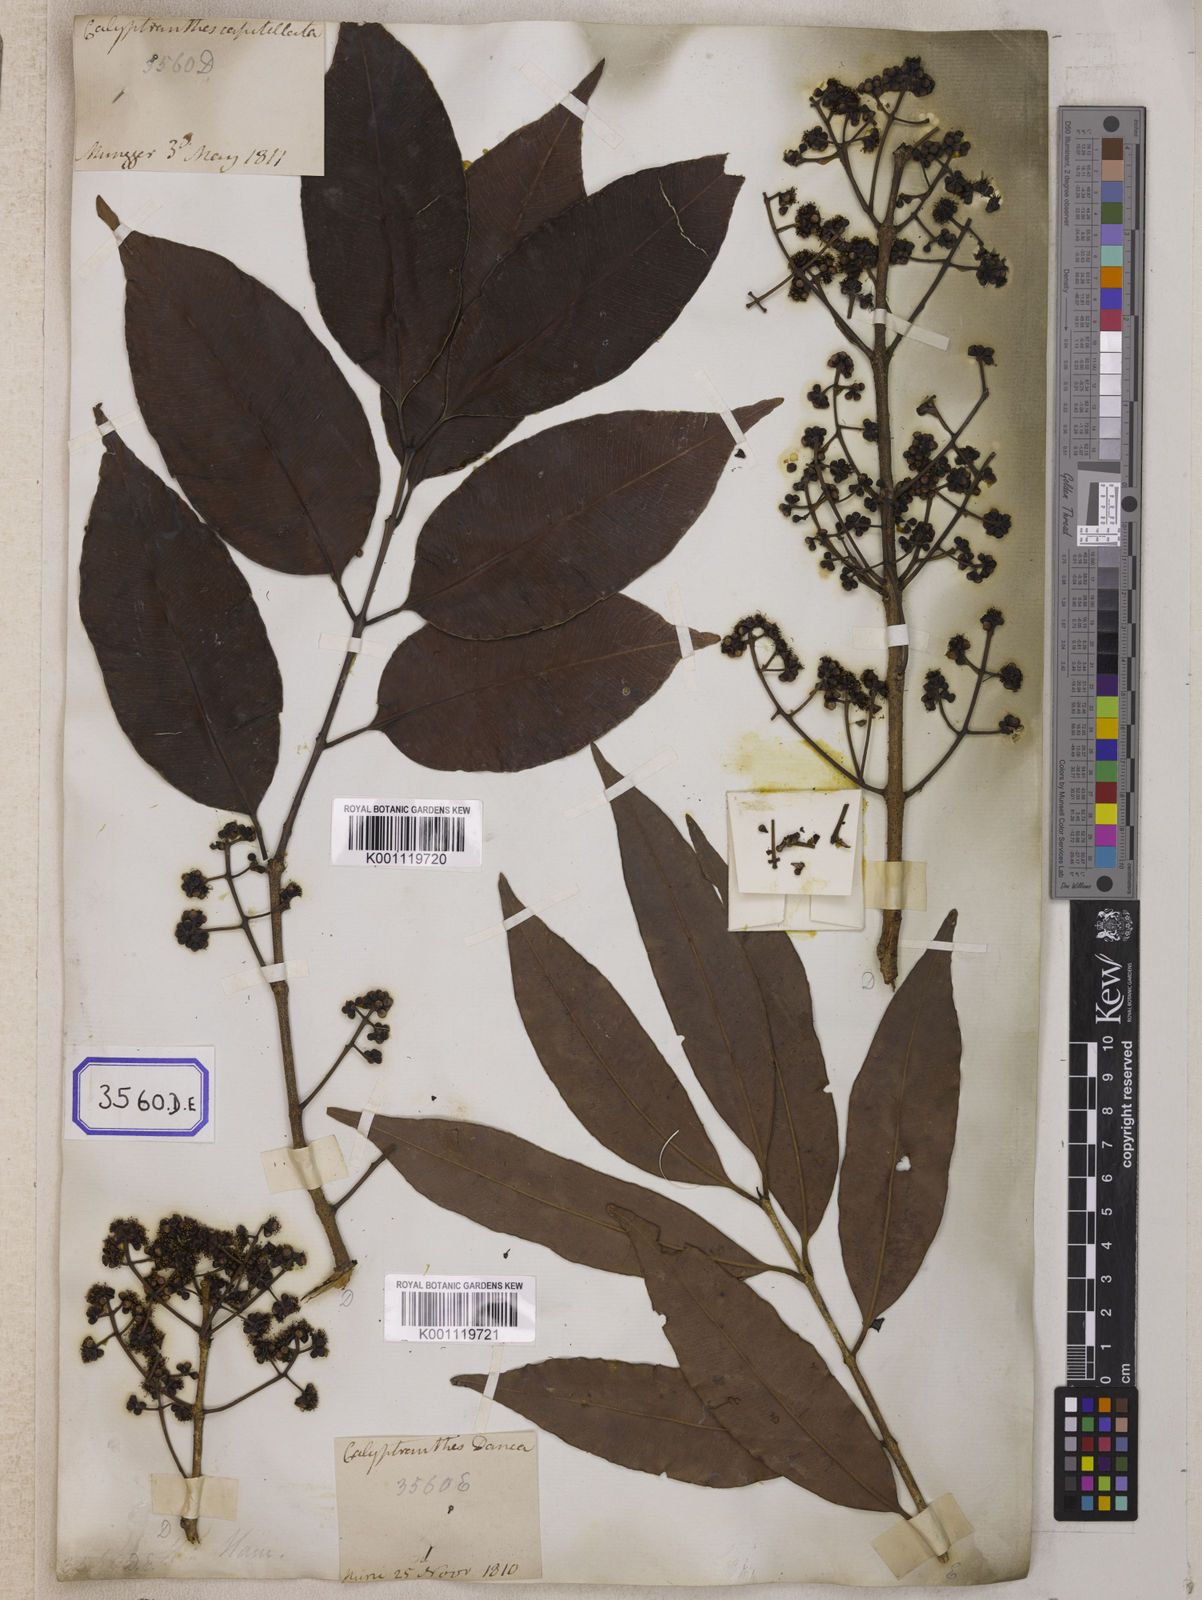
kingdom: Plantae
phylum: Tracheophyta
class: Magnoliopsida
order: Myrtales
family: Myrtaceae
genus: Syzygium
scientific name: Syzygium cumini
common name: Java plum
